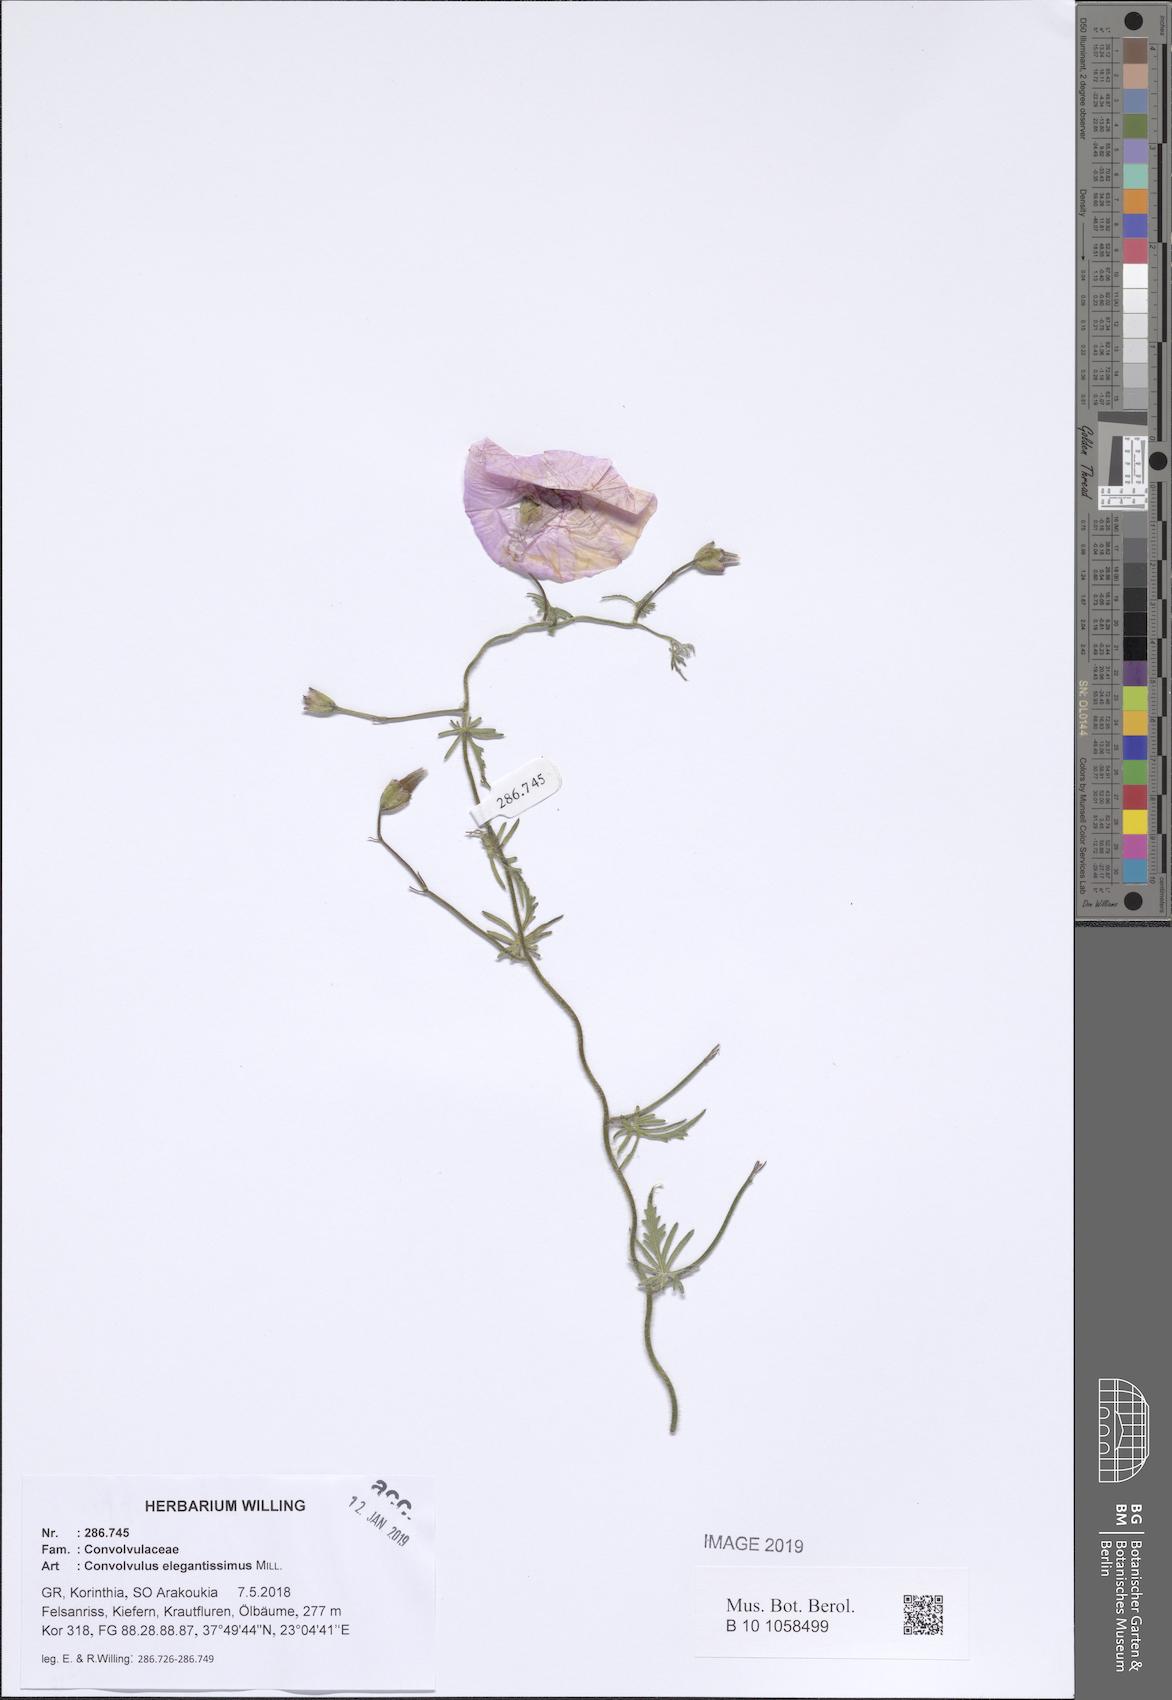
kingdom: Plantae
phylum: Tracheophyta
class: Magnoliopsida
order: Solanales
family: Convolvulaceae
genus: Convolvulus
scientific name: Convolvulus elegantissimus
